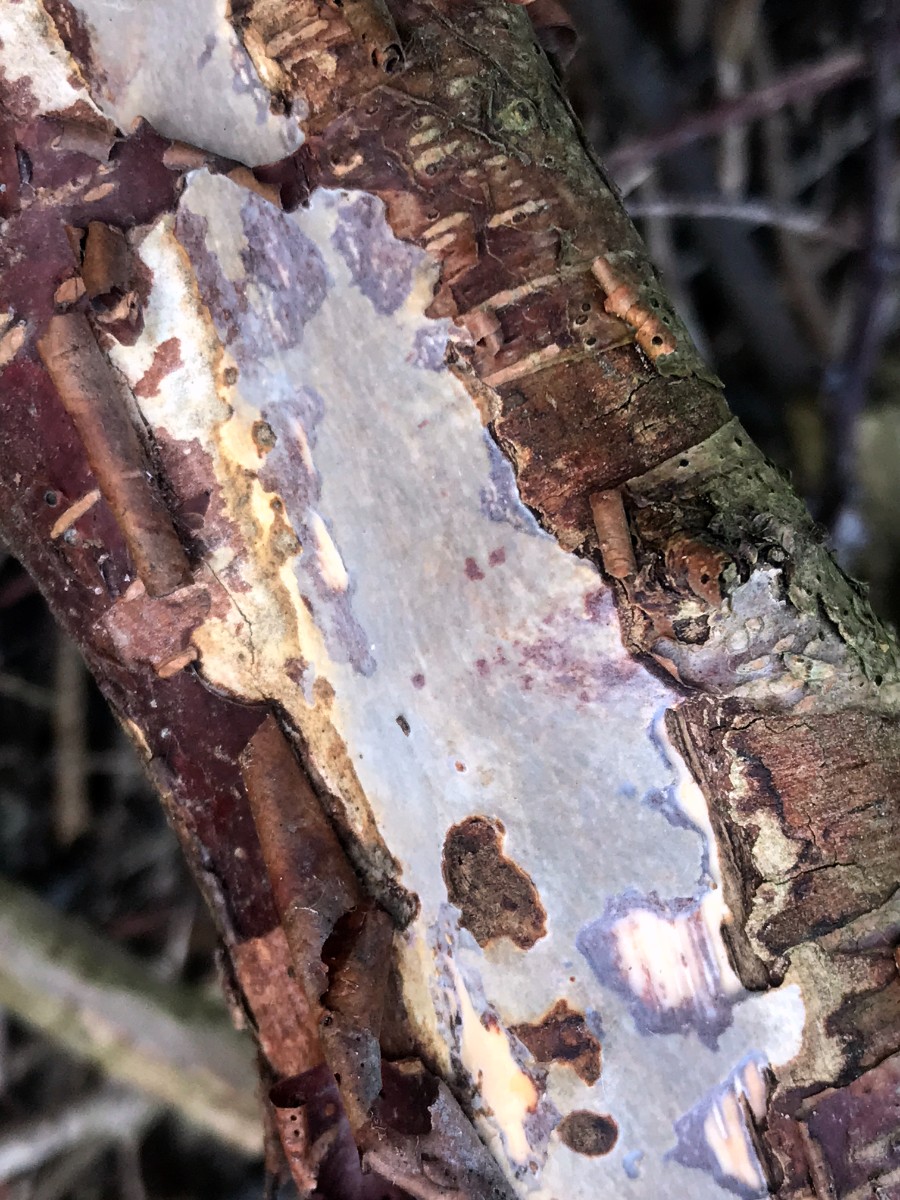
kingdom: Fungi
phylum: Basidiomycota
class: Agaricomycetes
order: Corticiales
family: Vuilleminiaceae
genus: Vuilleminia
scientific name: Vuilleminia comedens
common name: almindelig barksprænger
